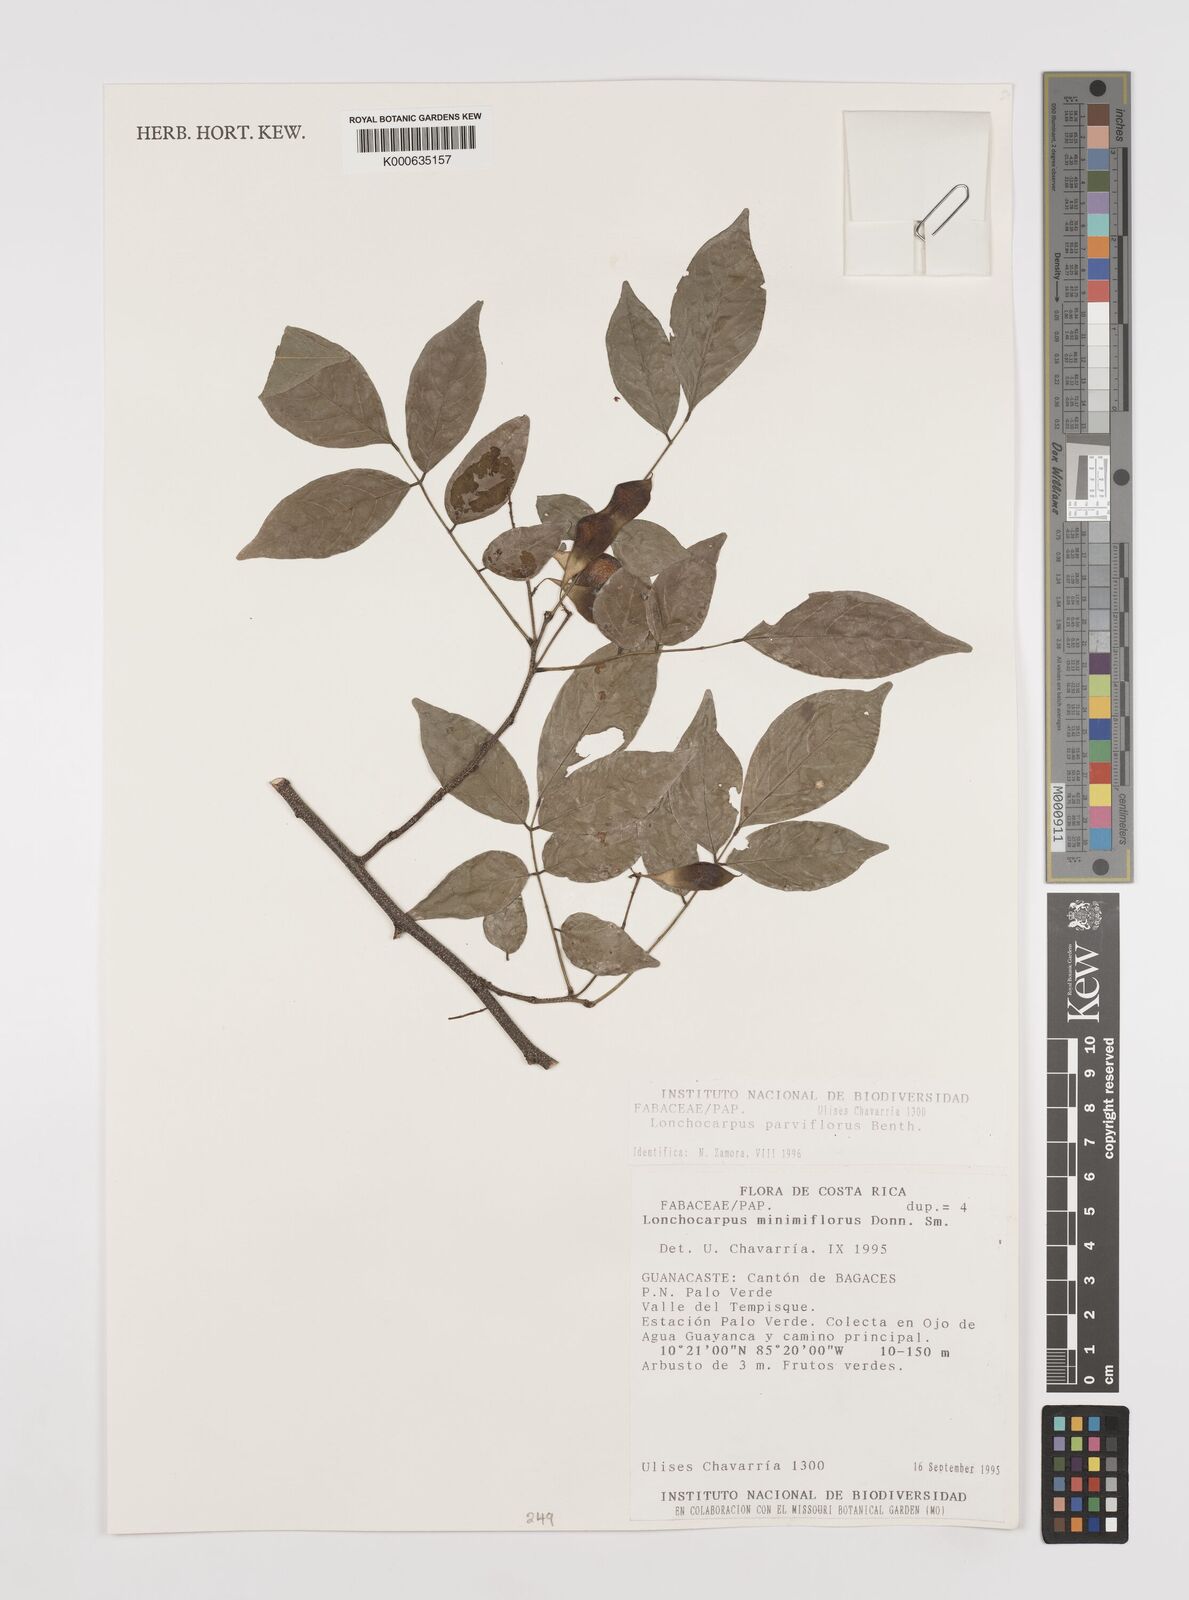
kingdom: Plantae
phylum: Tracheophyta
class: Magnoliopsida
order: Fabales
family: Fabaceae
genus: Lonchocarpus
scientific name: Lonchocarpus parviflorus
